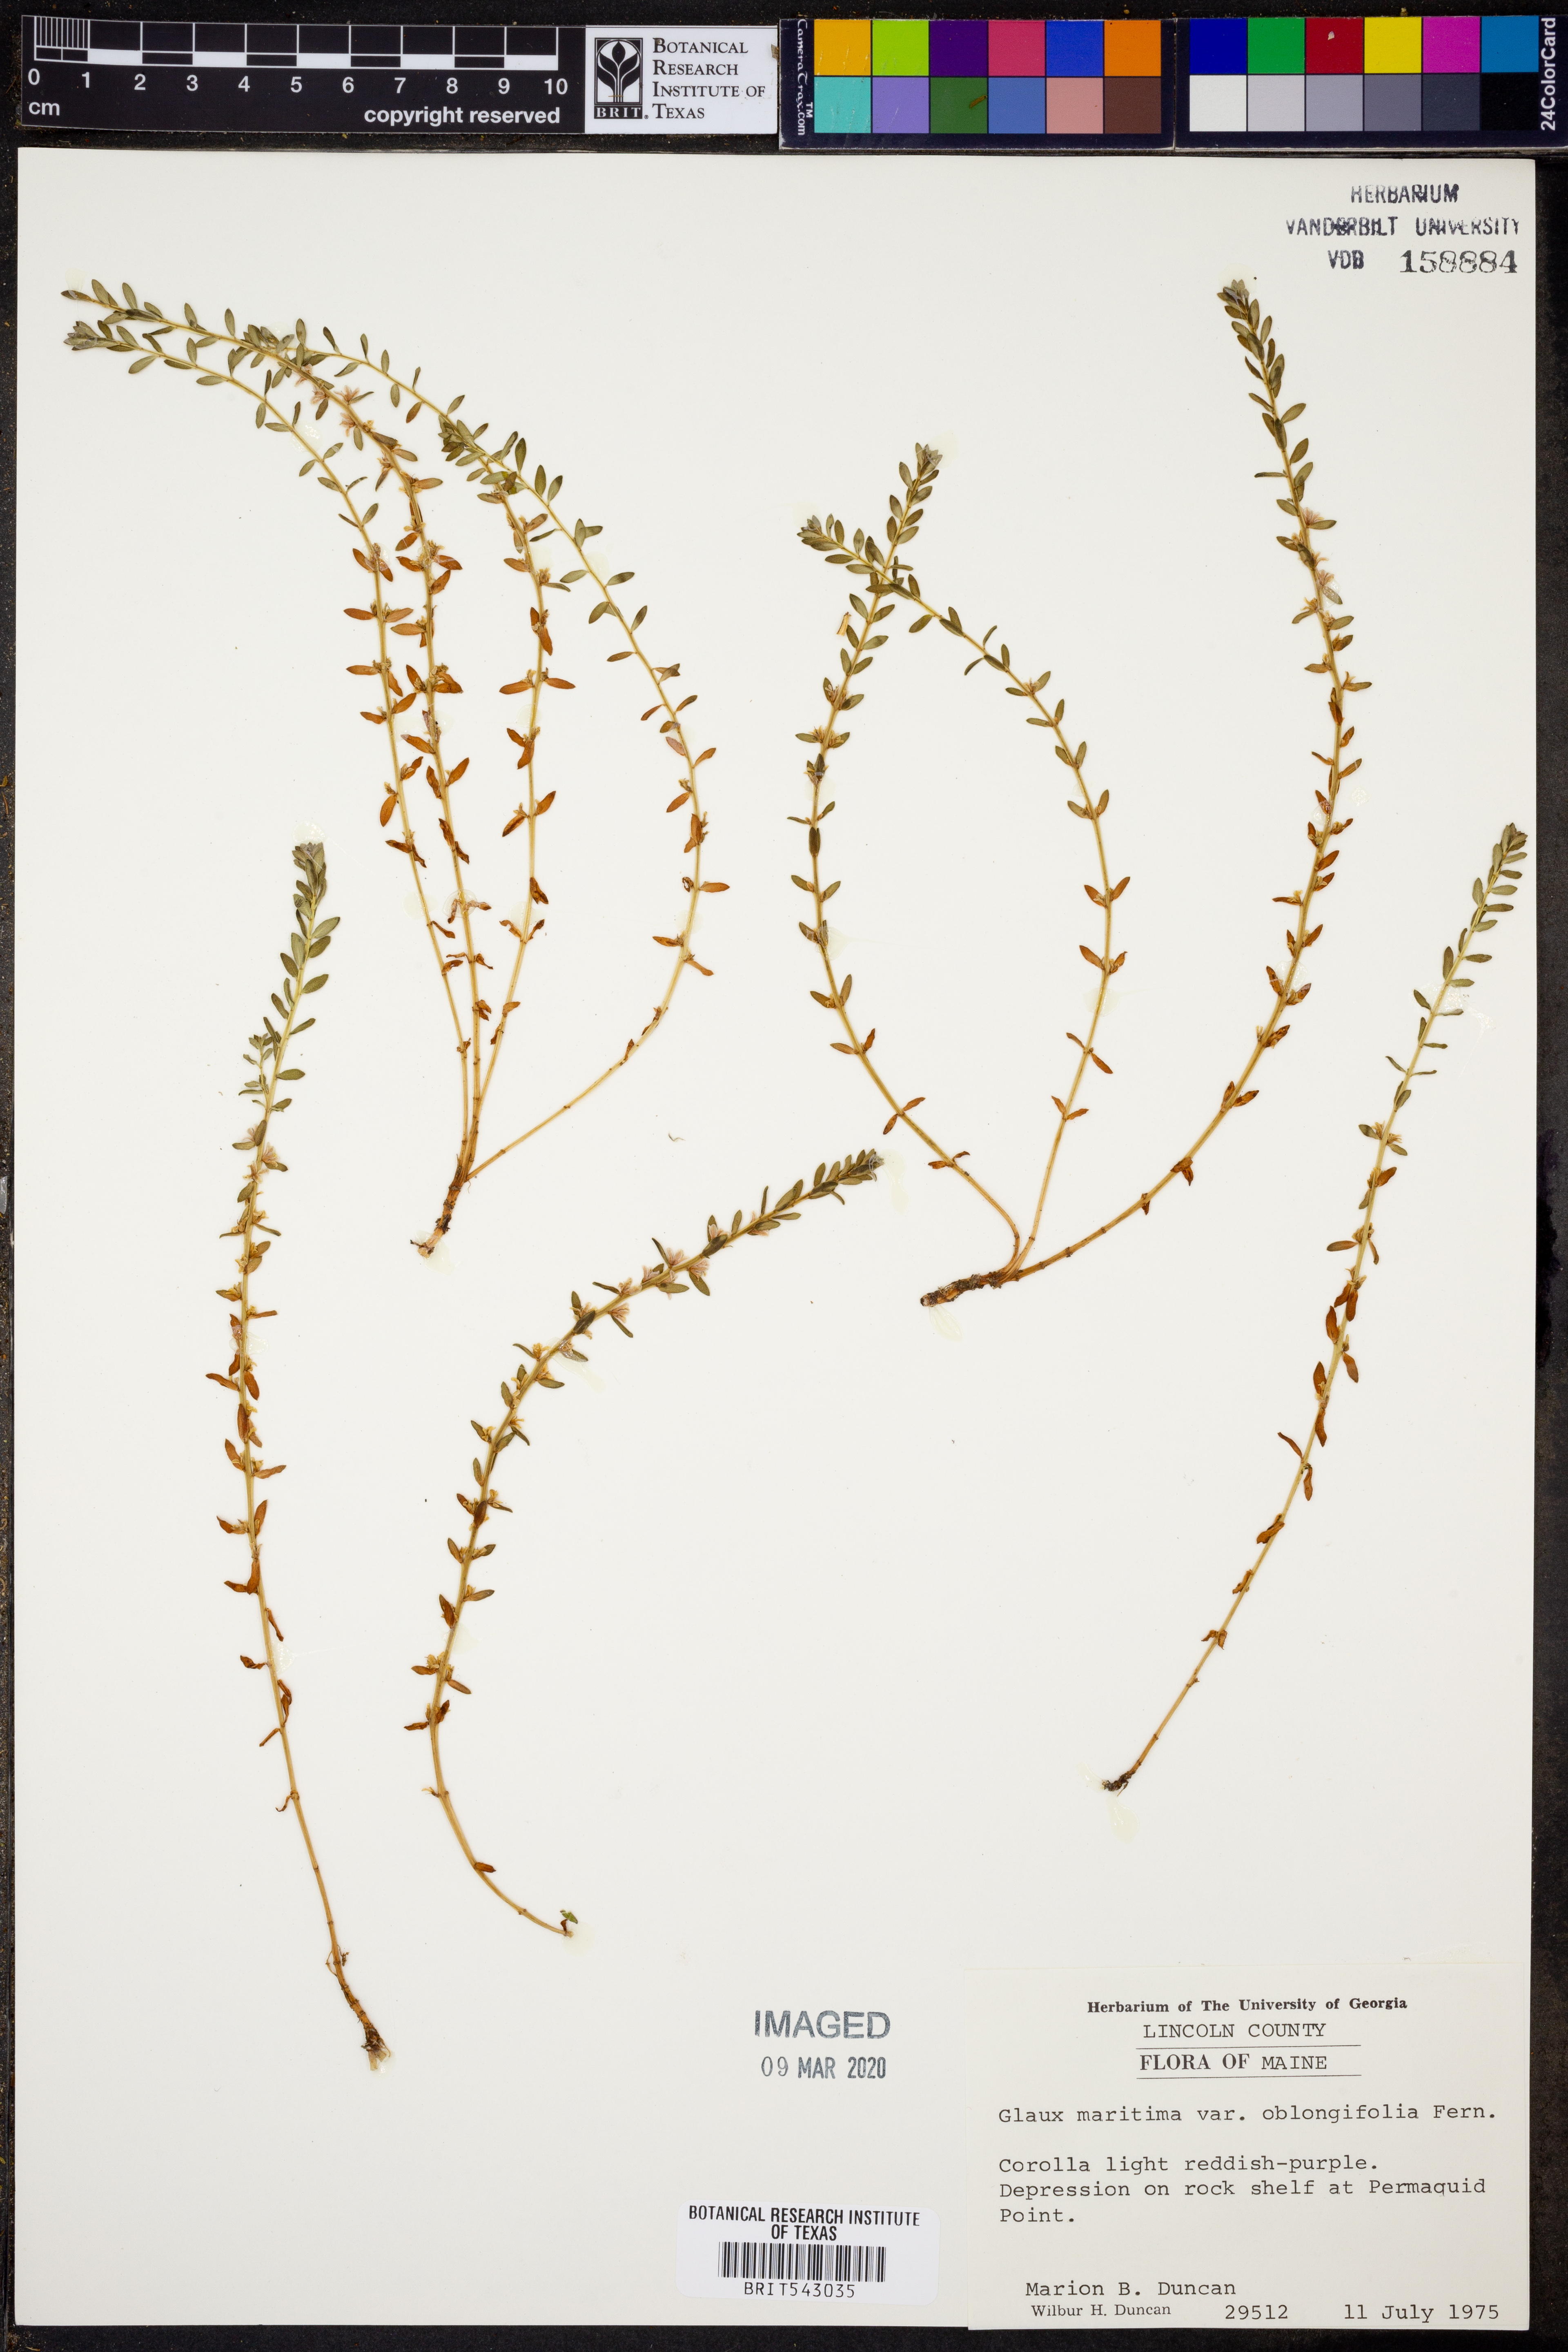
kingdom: Plantae
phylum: Tracheophyta
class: Magnoliopsida
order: Ericales
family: Primulaceae
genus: Lysimachia
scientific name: Lysimachia maritima
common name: Sea milkwort
